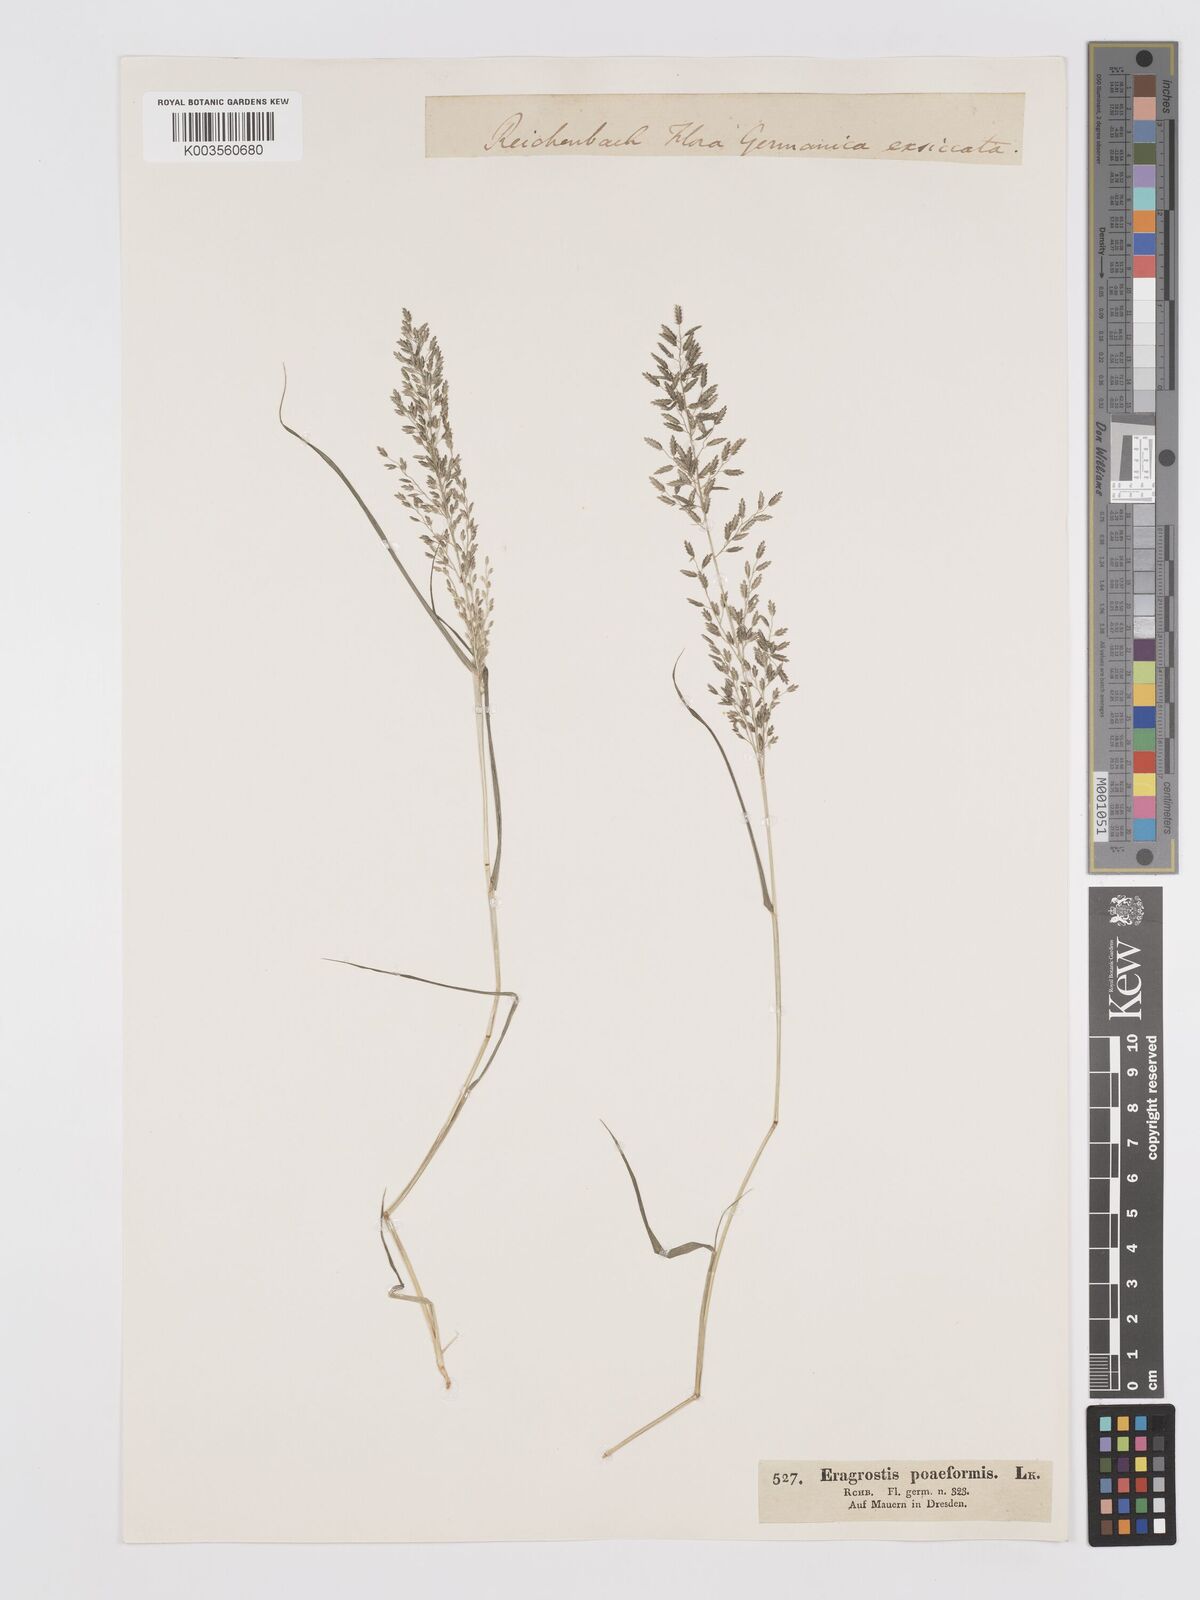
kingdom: Plantae
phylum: Tracheophyta
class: Liliopsida
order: Poales
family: Poaceae
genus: Eragrostis
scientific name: Eragrostis minor
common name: Small love-grass
